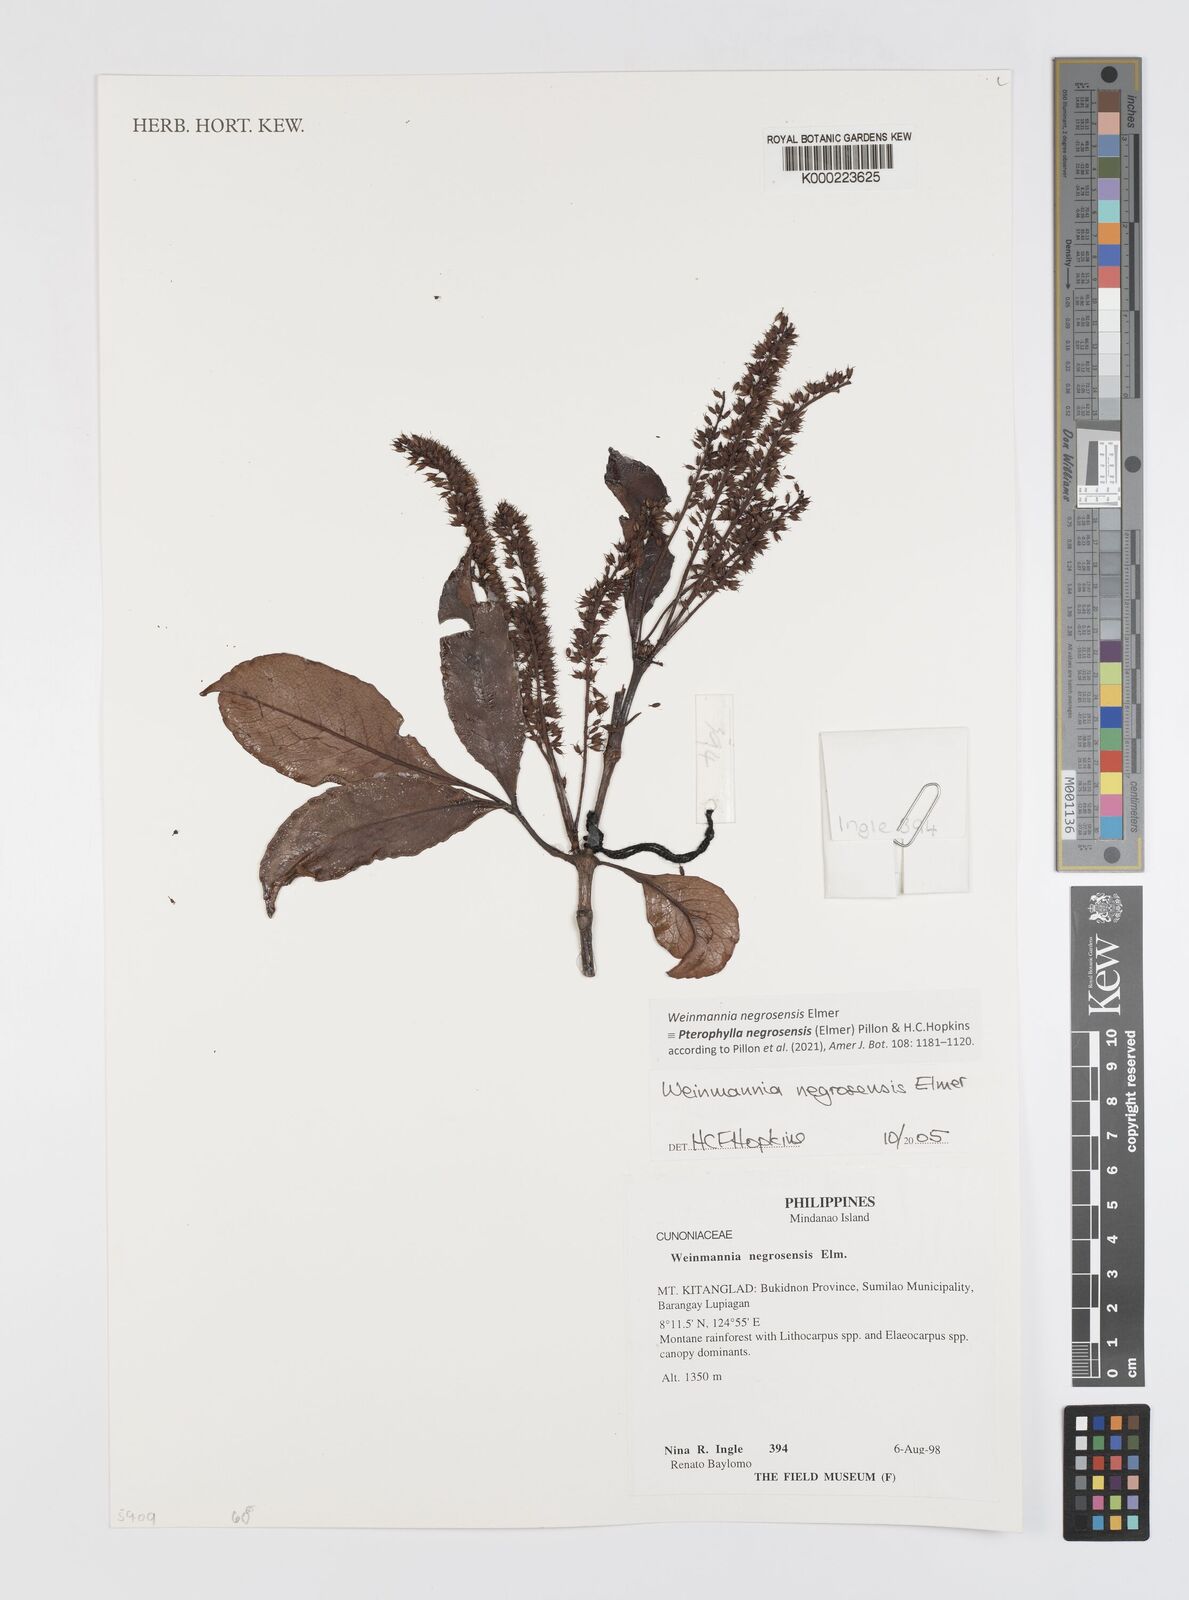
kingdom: Plantae
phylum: Tracheophyta
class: Magnoliopsida
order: Oxalidales
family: Cunoniaceae
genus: Pterophylla
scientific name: Pterophylla negrosensis
